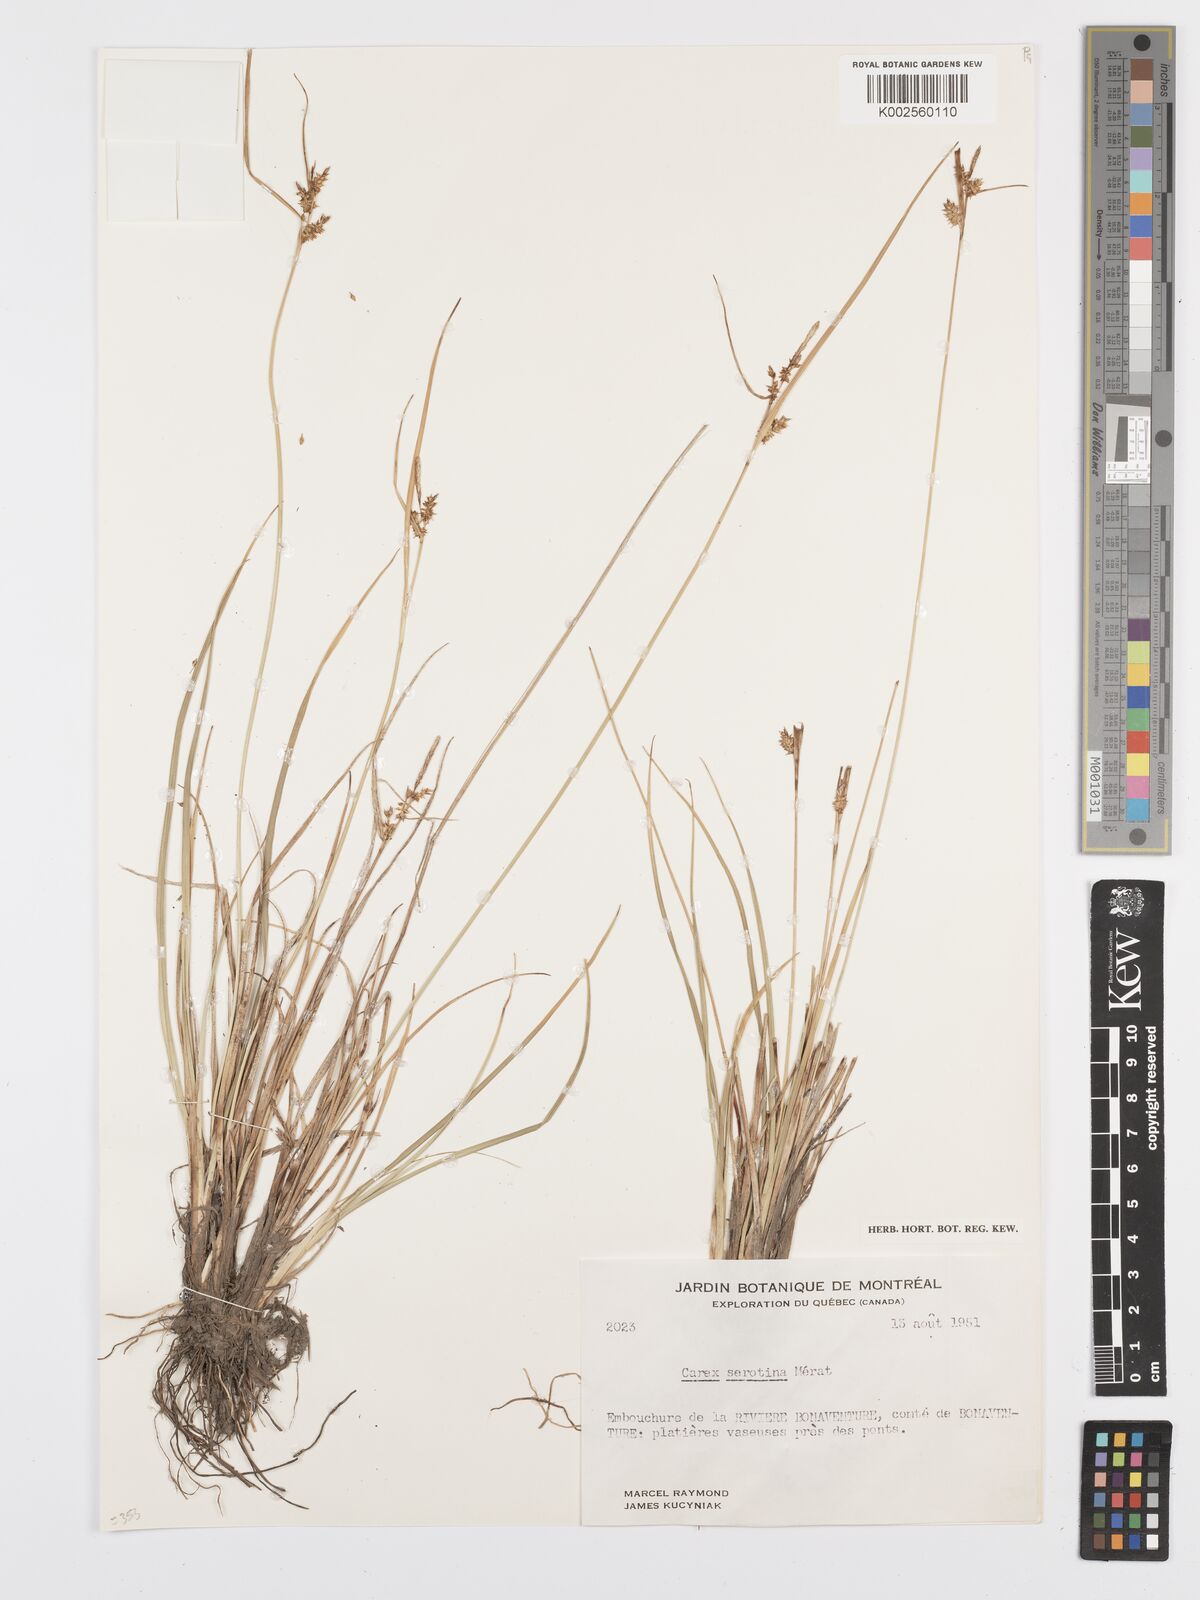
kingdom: Plantae
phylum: Tracheophyta
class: Liliopsida
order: Poales
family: Cyperaceae
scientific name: Cyperaceae
